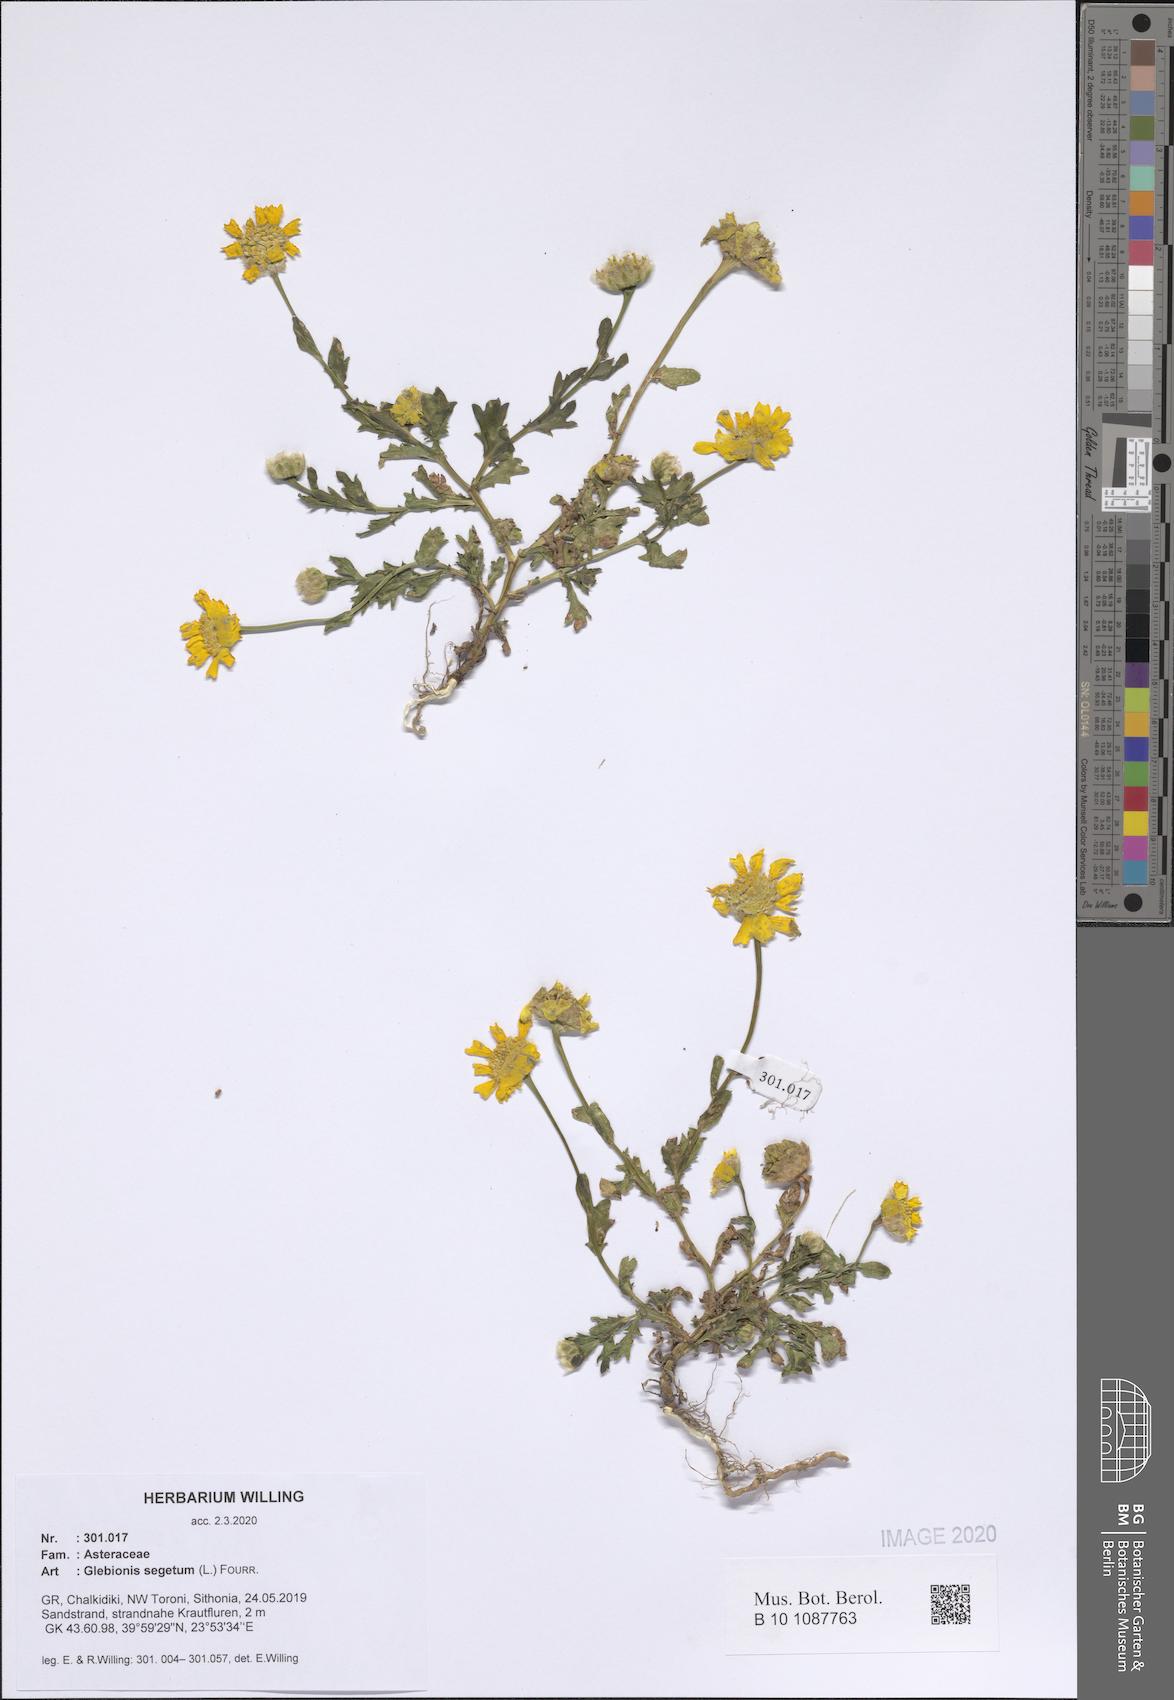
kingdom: Plantae
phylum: Tracheophyta
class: Magnoliopsida
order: Asterales
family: Asteraceae
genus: Glebionis
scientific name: Glebionis segetum
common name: Corndaisy
